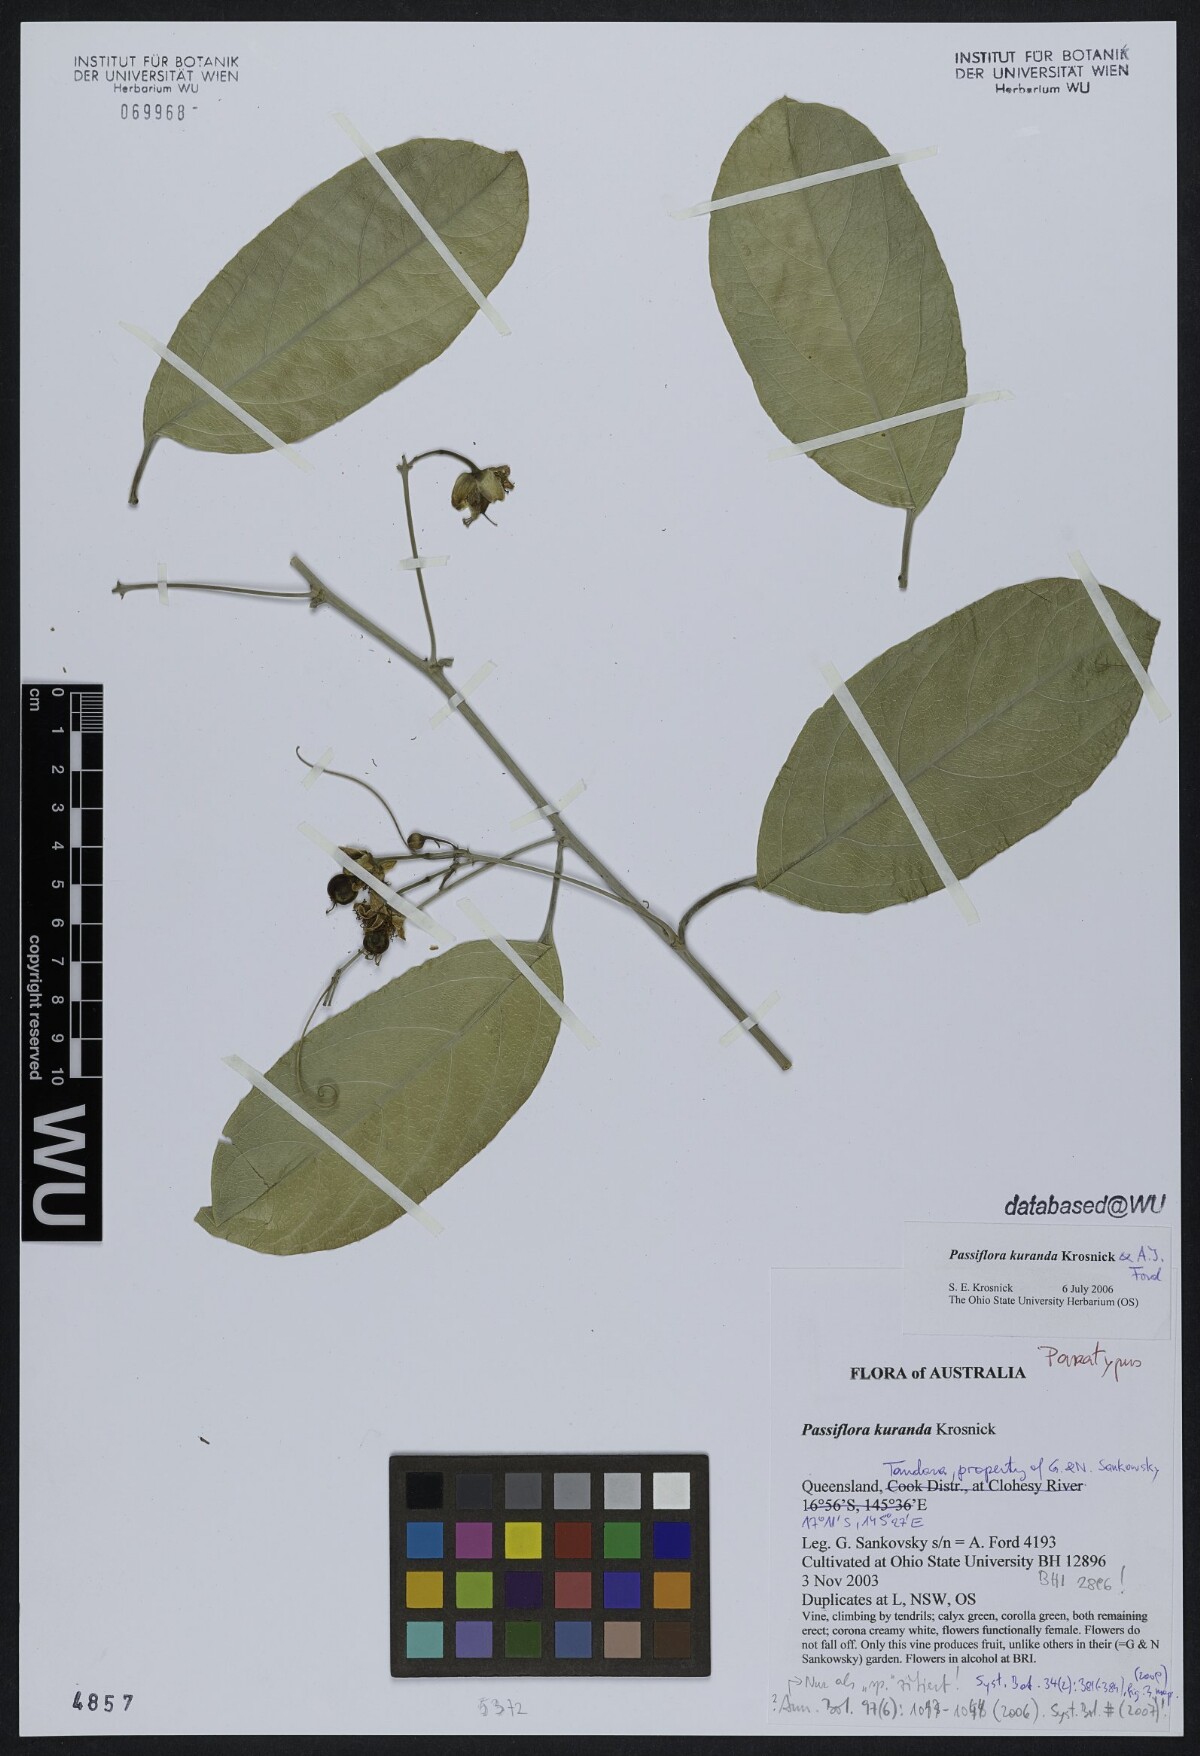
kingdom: Plantae
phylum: Tracheophyta
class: Magnoliopsida
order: Malpighiales
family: Passifloraceae
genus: Passiflora
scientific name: Passiflora kuranda
